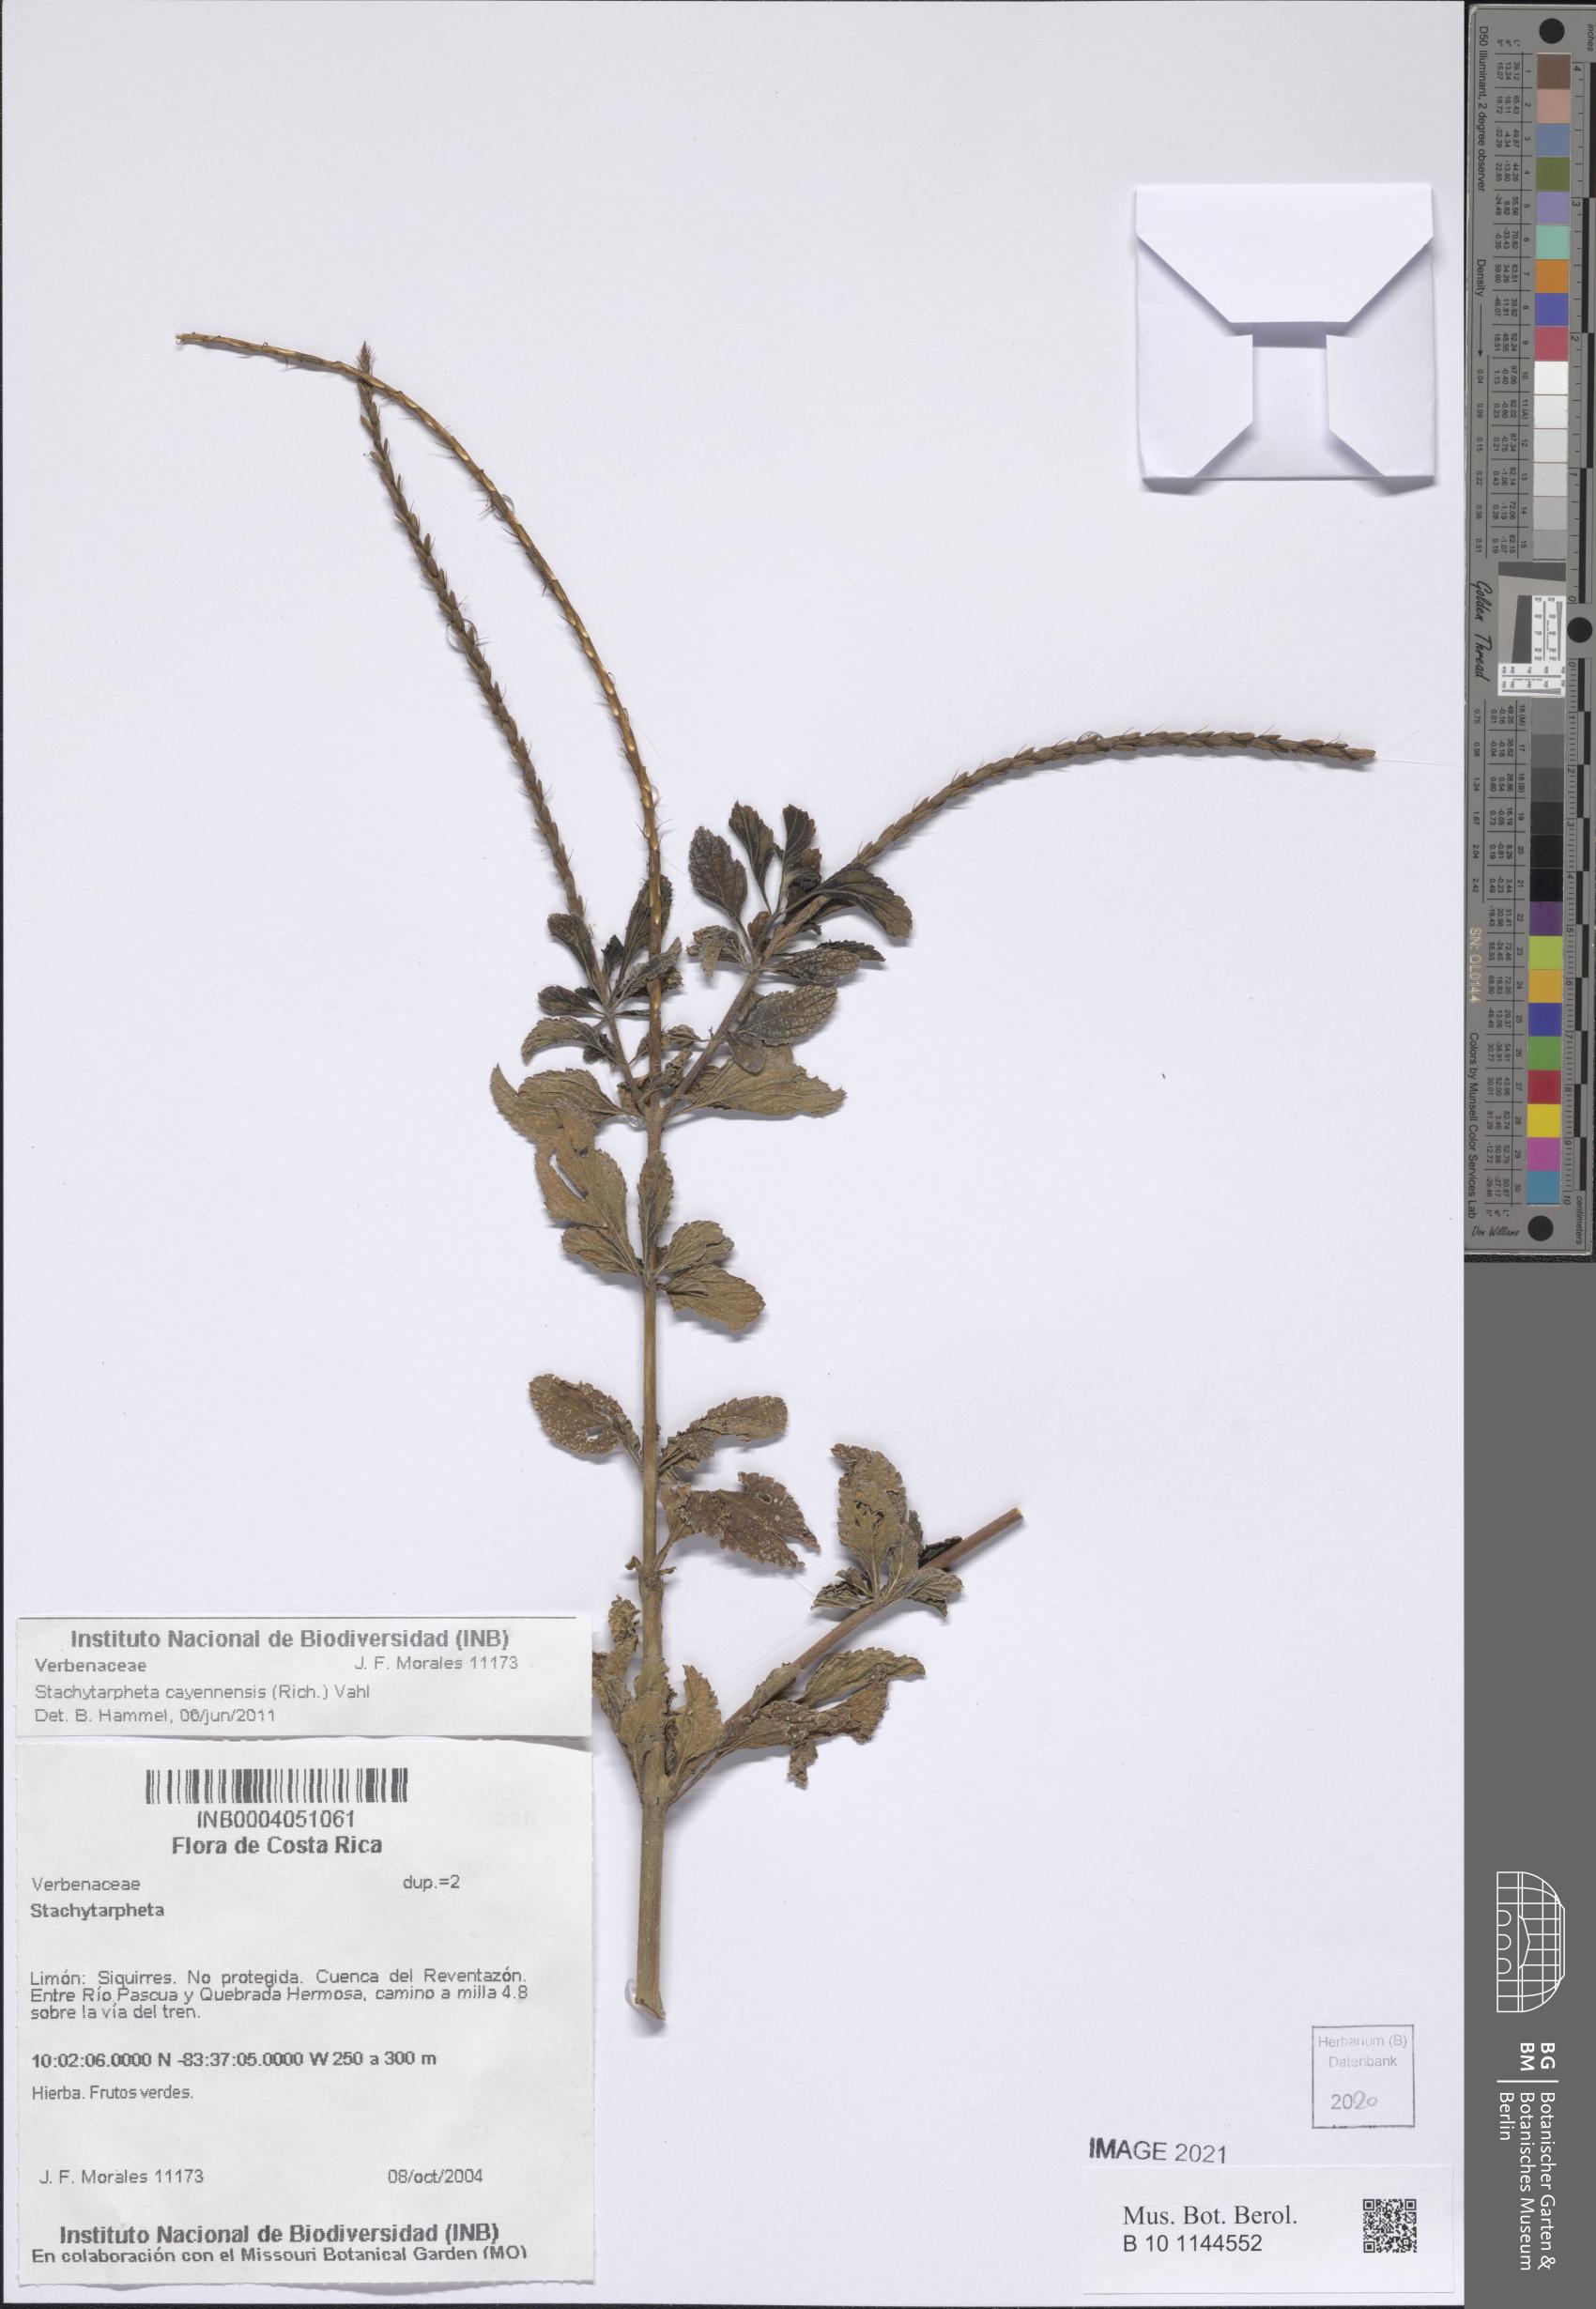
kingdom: Plantae
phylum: Tracheophyta
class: Magnoliopsida
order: Lamiales
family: Verbenaceae
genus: Stachytarpheta
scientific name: Stachytarpheta cayennensis
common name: Cayenne porterweed
